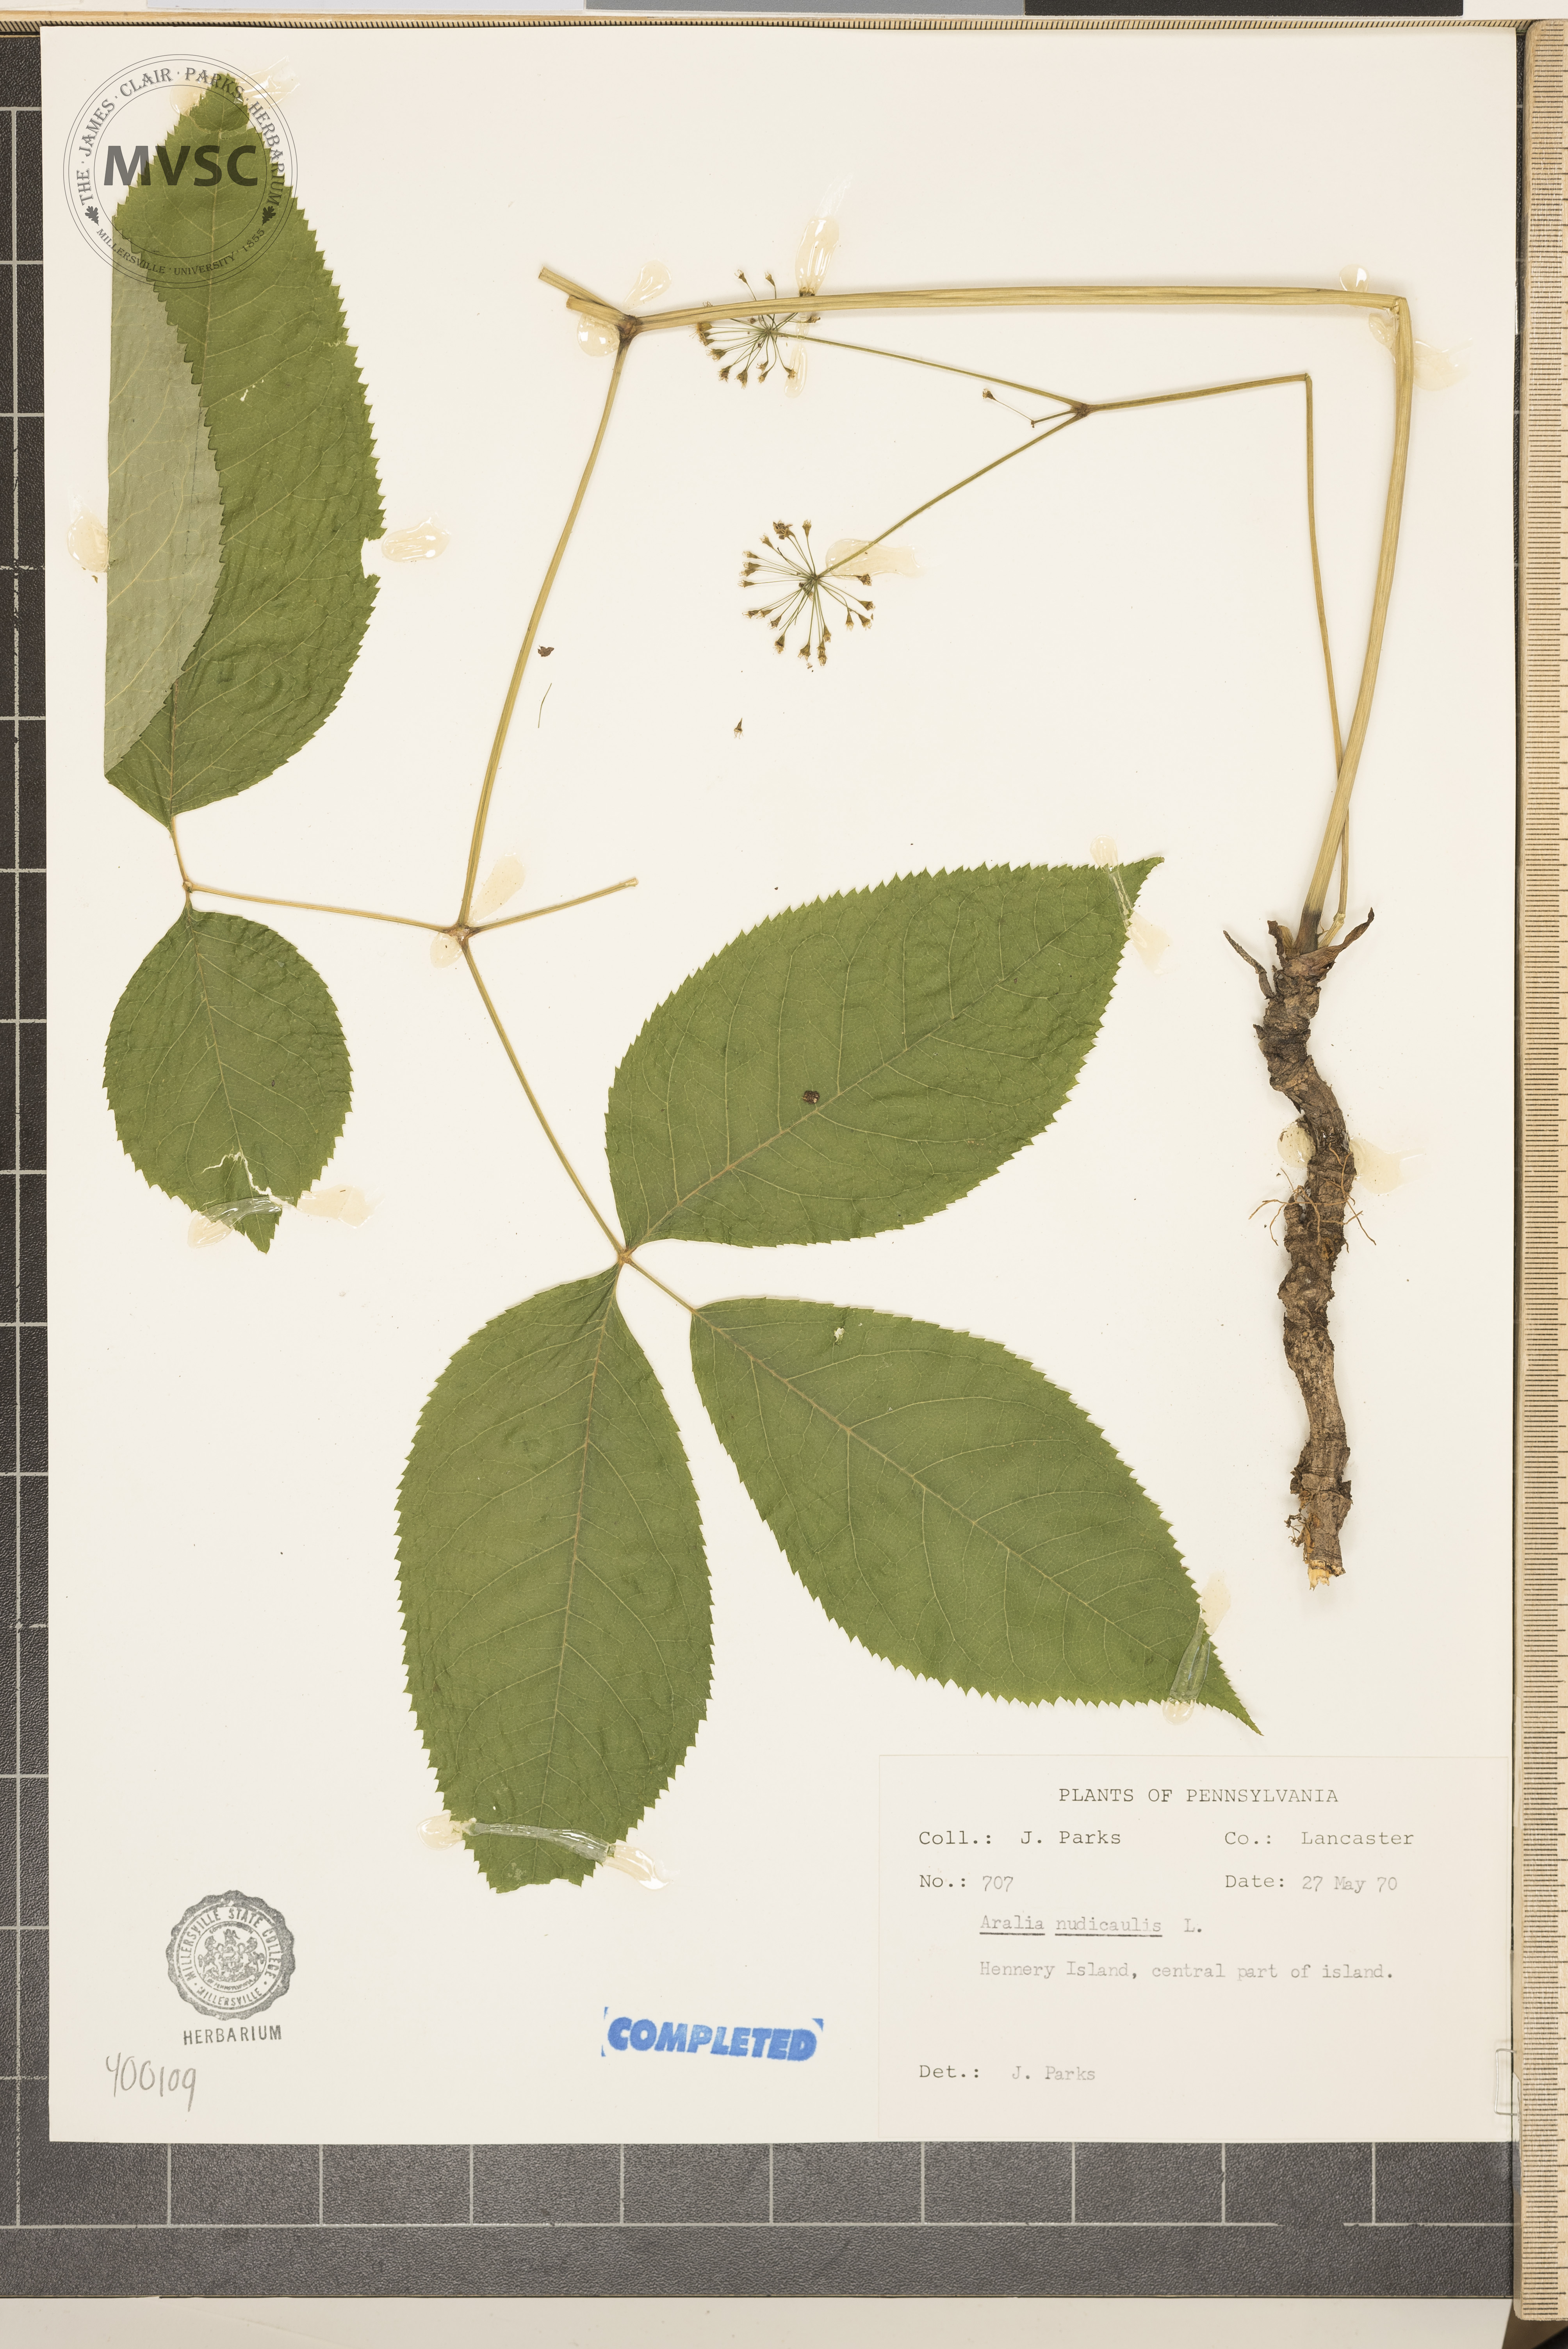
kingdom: Plantae
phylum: Tracheophyta
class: Magnoliopsida
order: Apiales
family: Araliaceae
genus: Aralia
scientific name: Aralia nudicaulis
